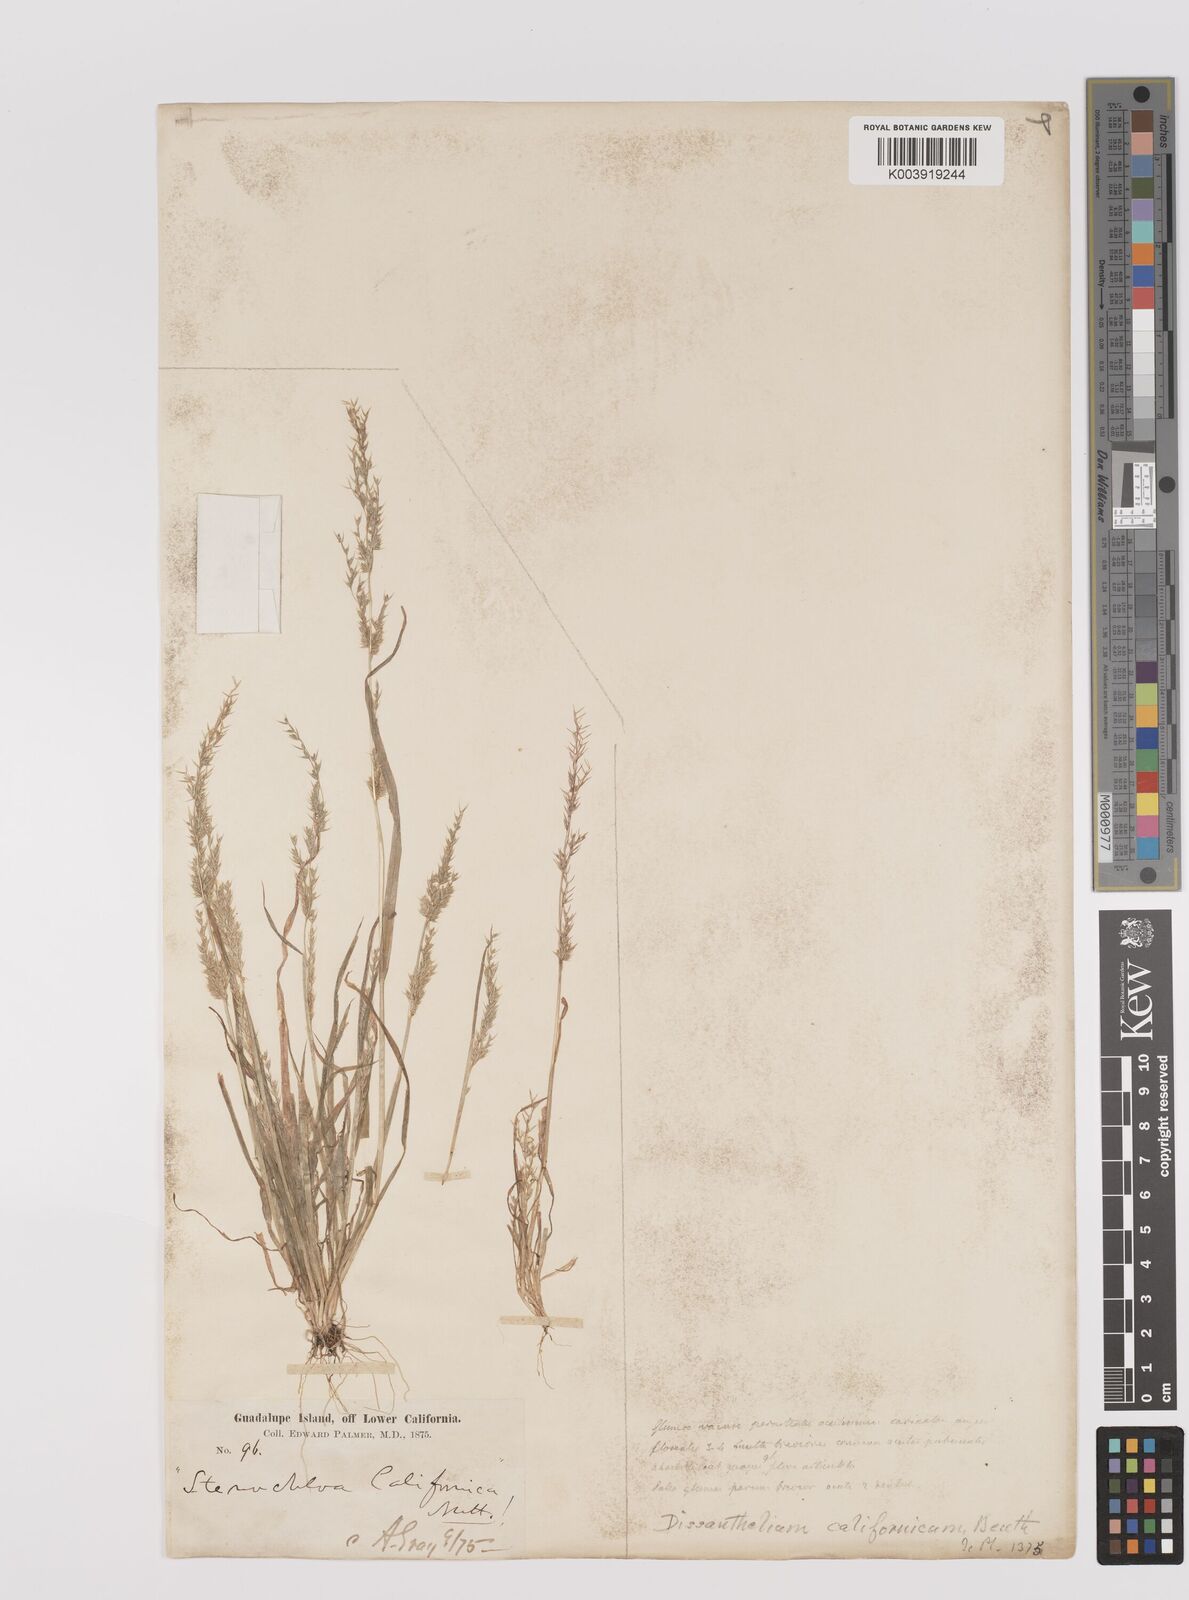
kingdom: Plantae
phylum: Tracheophyta
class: Liliopsida
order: Poales
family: Poaceae
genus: Poa
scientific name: Poa thomasii
